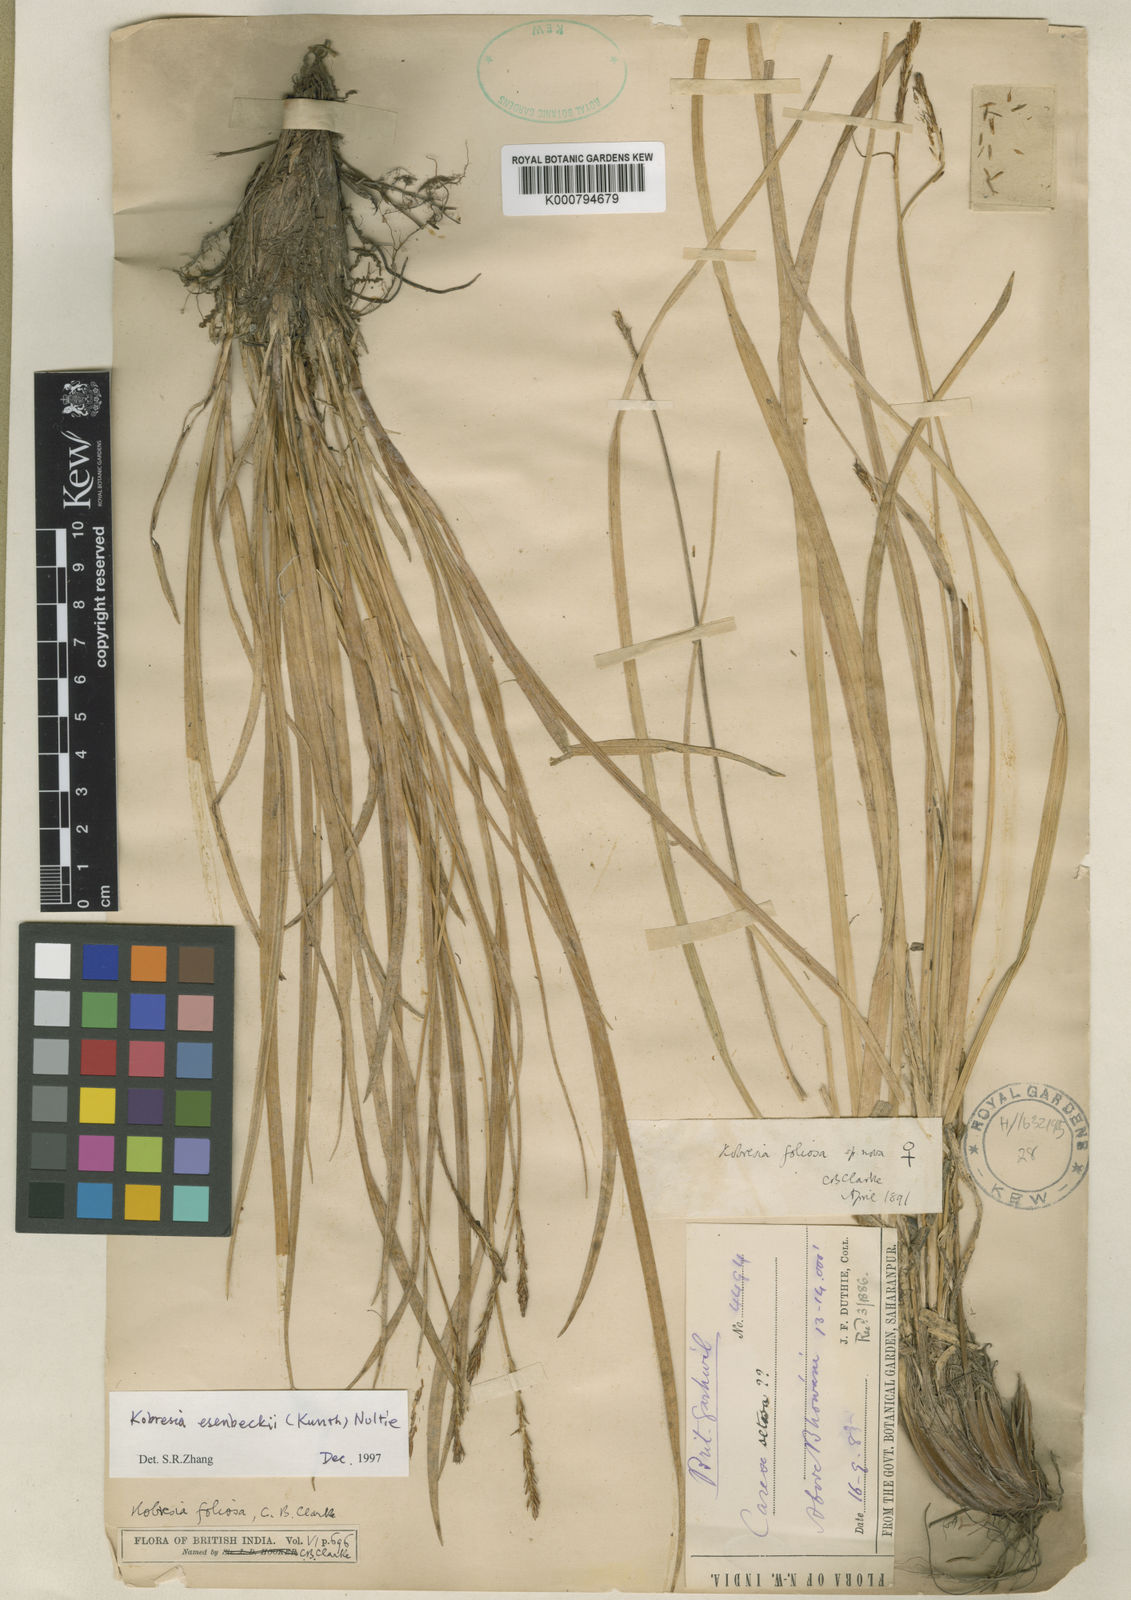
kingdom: Plantae
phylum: Tracheophyta
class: Liliopsida
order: Poales
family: Cyperaceae
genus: Carex
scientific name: Carex esenbeckii
